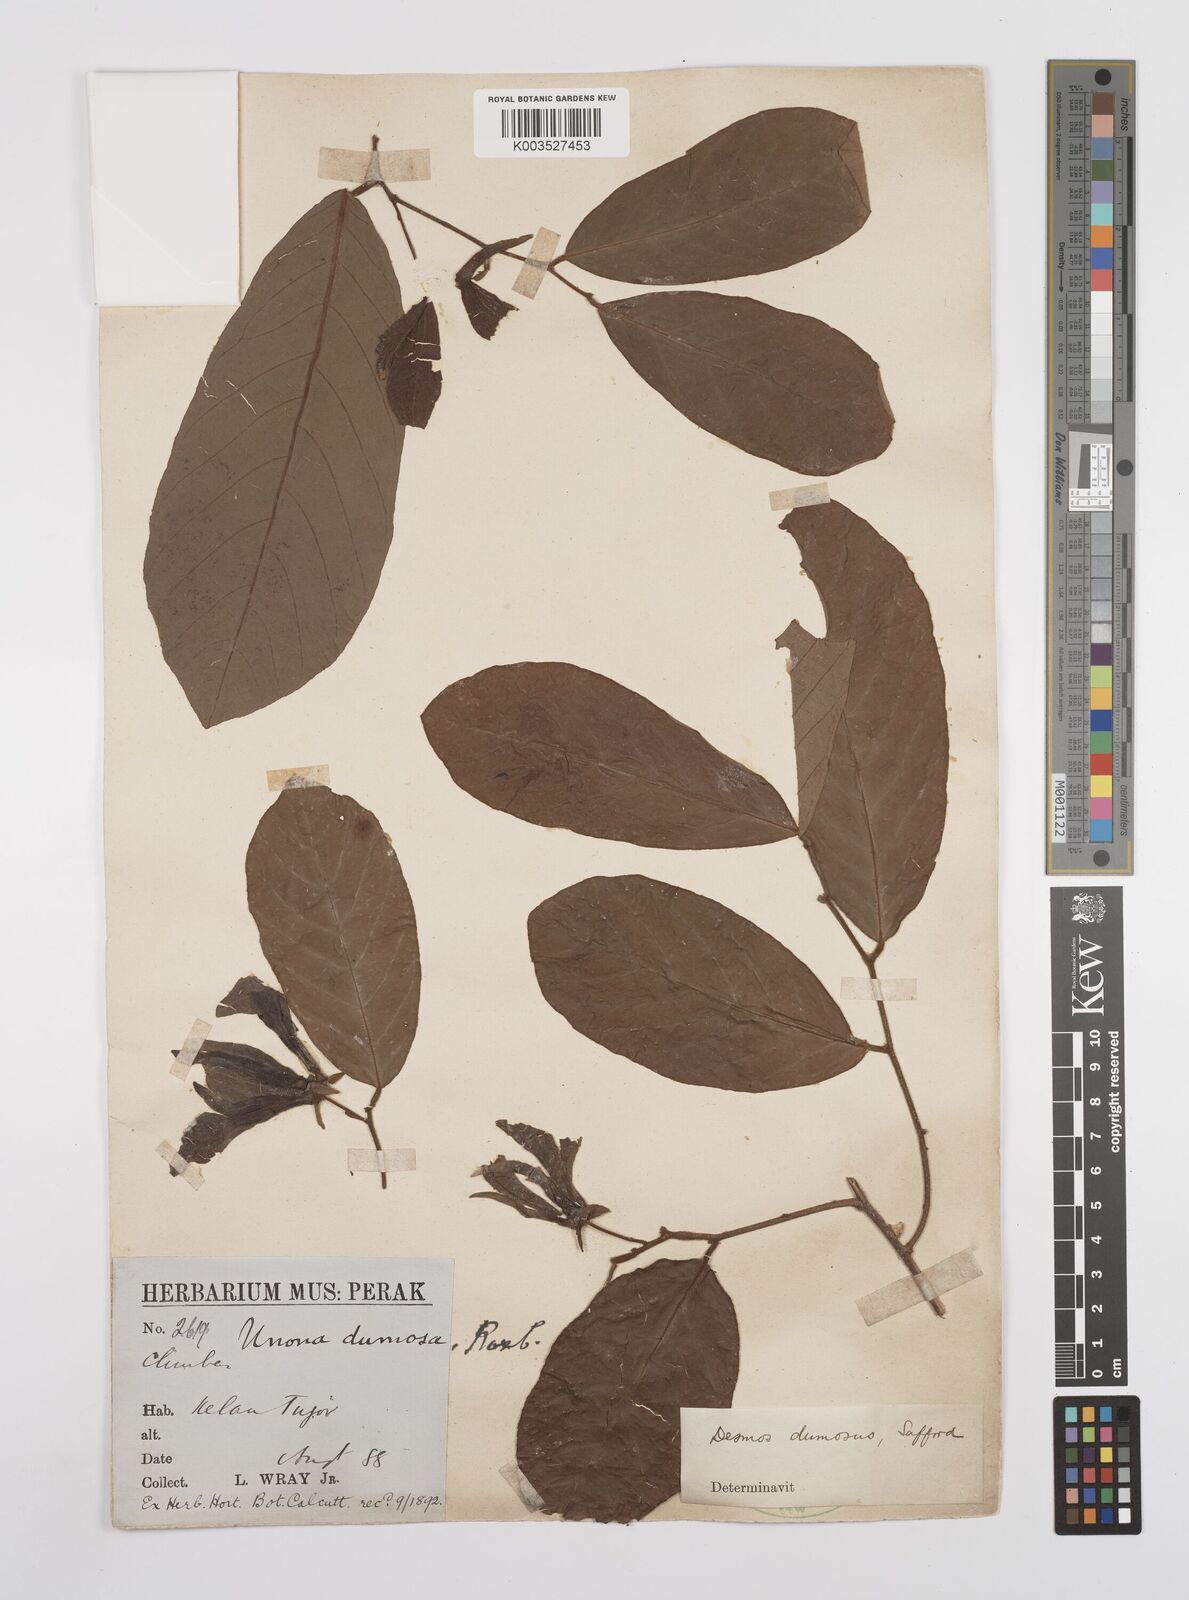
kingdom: Plantae
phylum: Tracheophyta
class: Magnoliopsida
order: Magnoliales
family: Annonaceae
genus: Desmos
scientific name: Desmos dumosus
